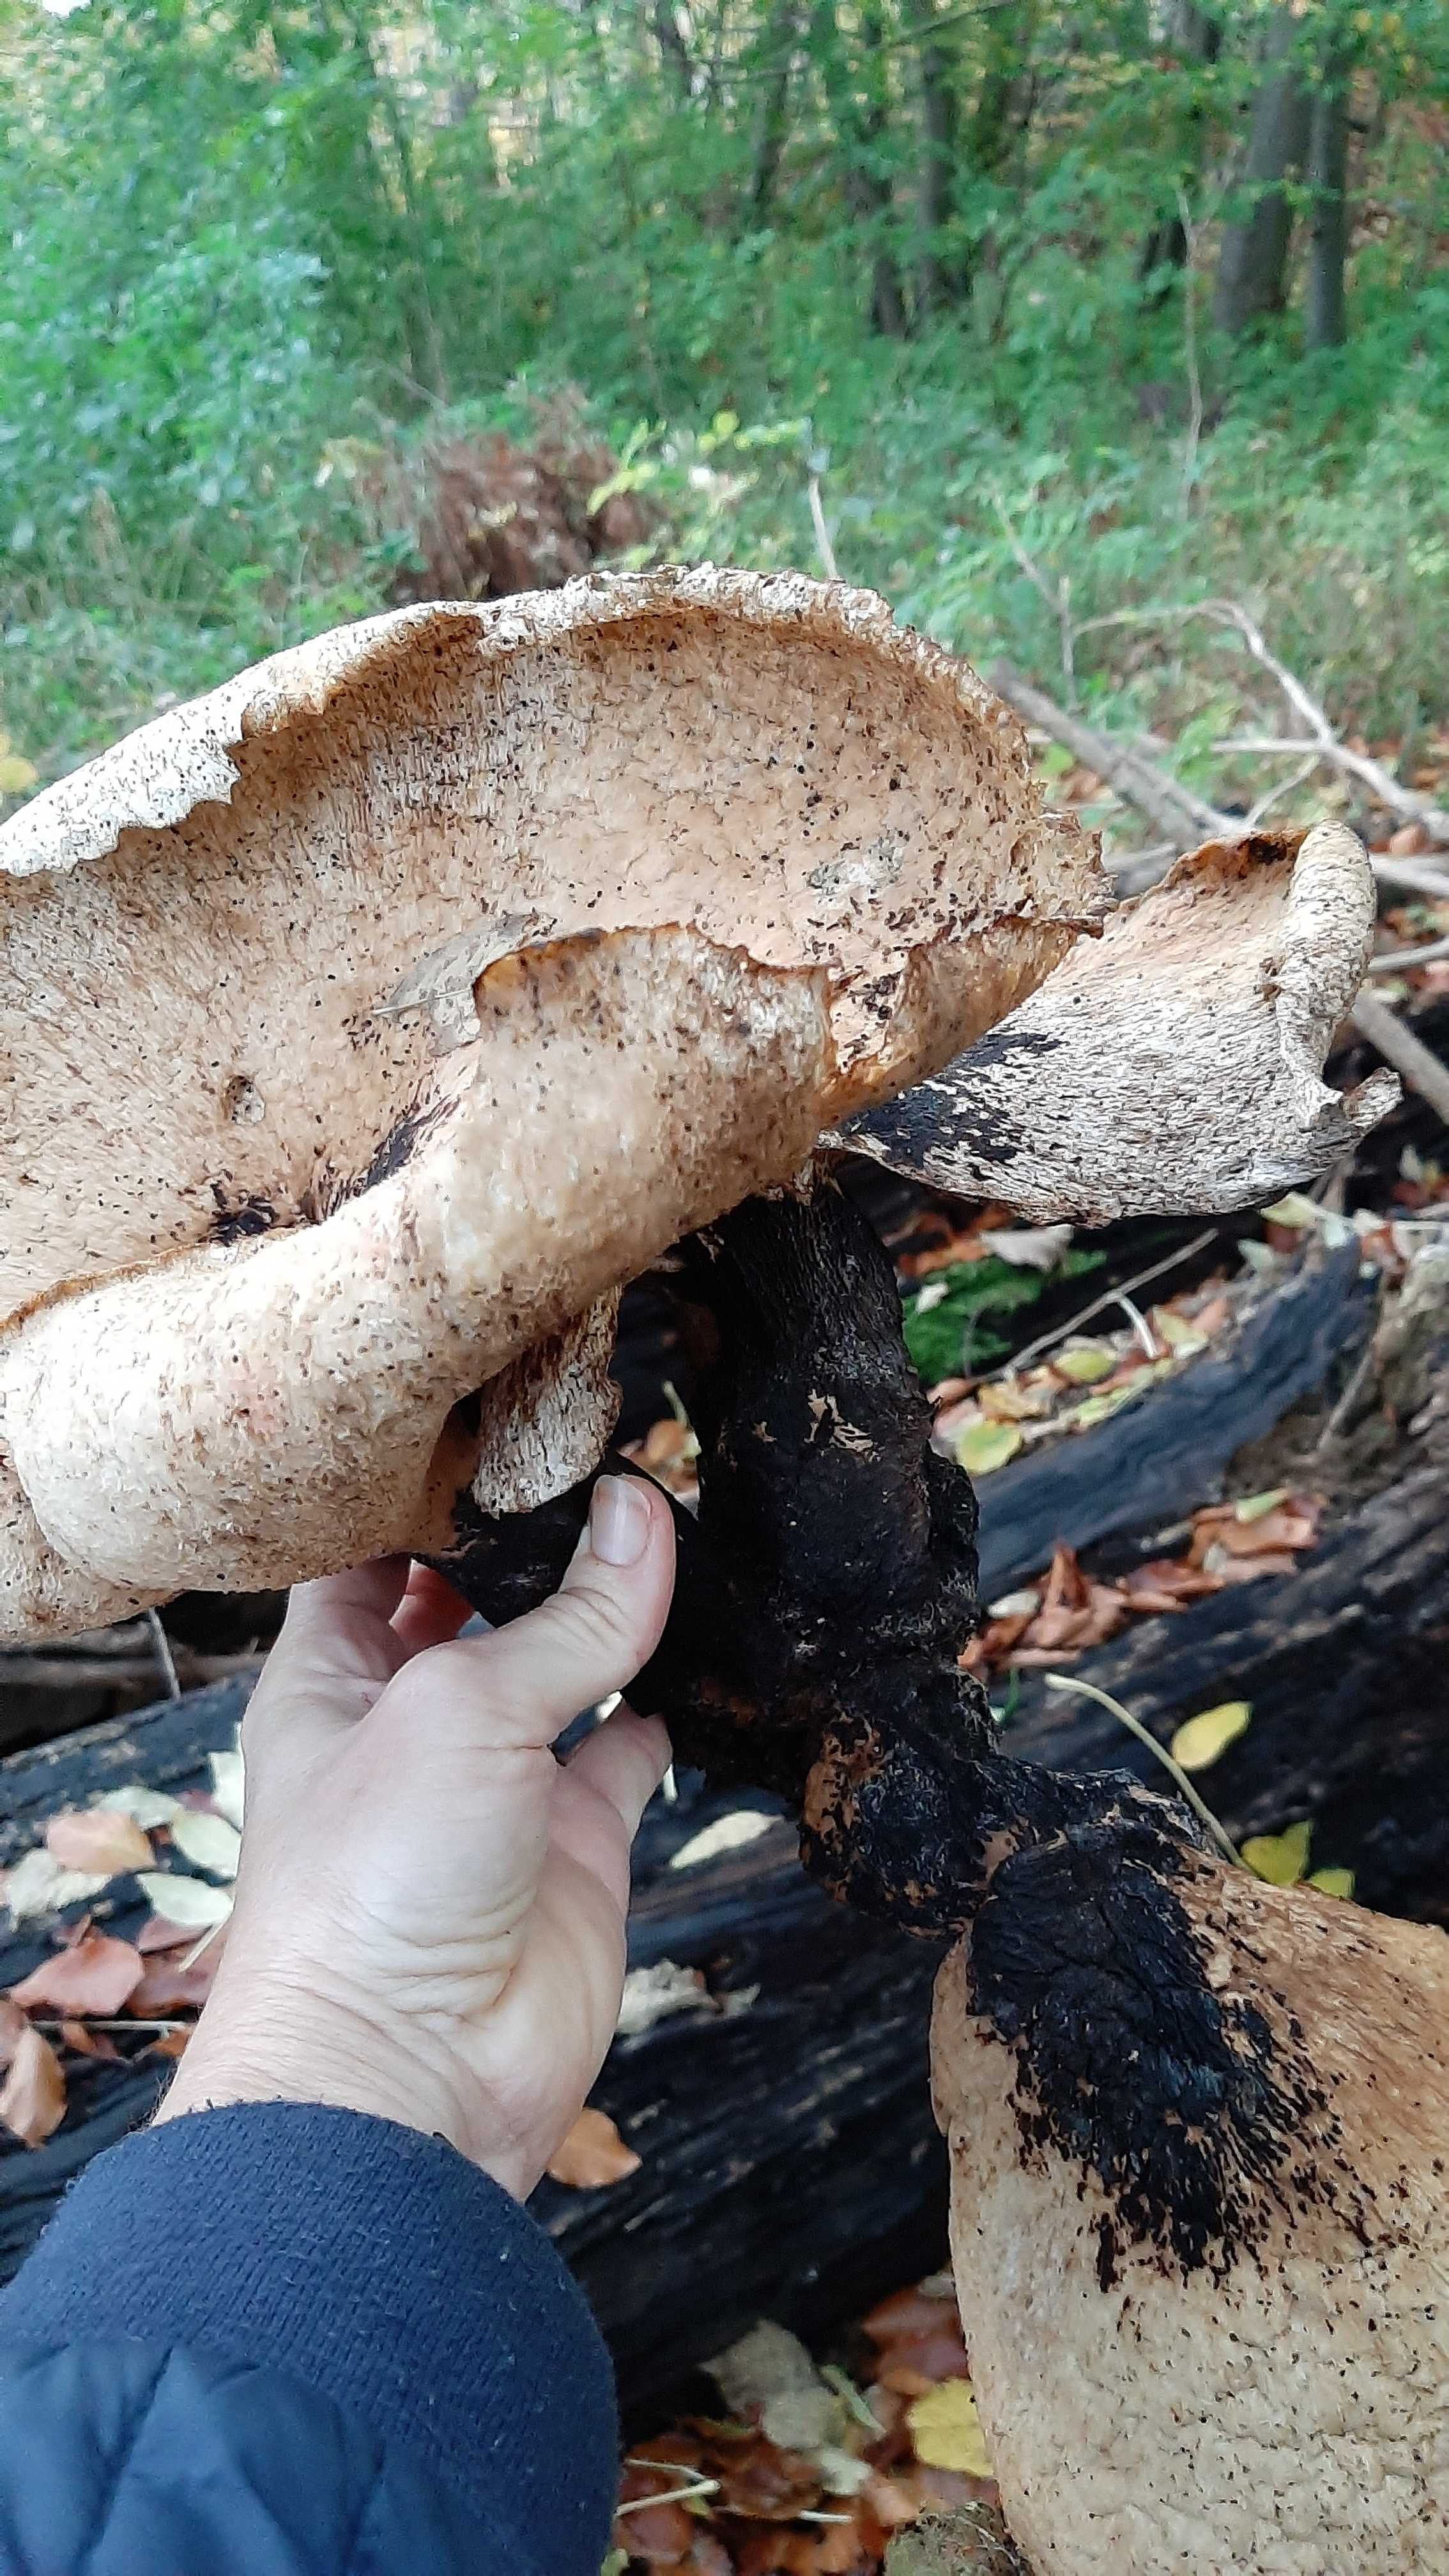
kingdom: Fungi
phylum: Basidiomycota
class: Agaricomycetes
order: Polyporales
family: Polyporaceae
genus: Cerioporus
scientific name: Cerioporus squamosus
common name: skællet stilkporesvamp
